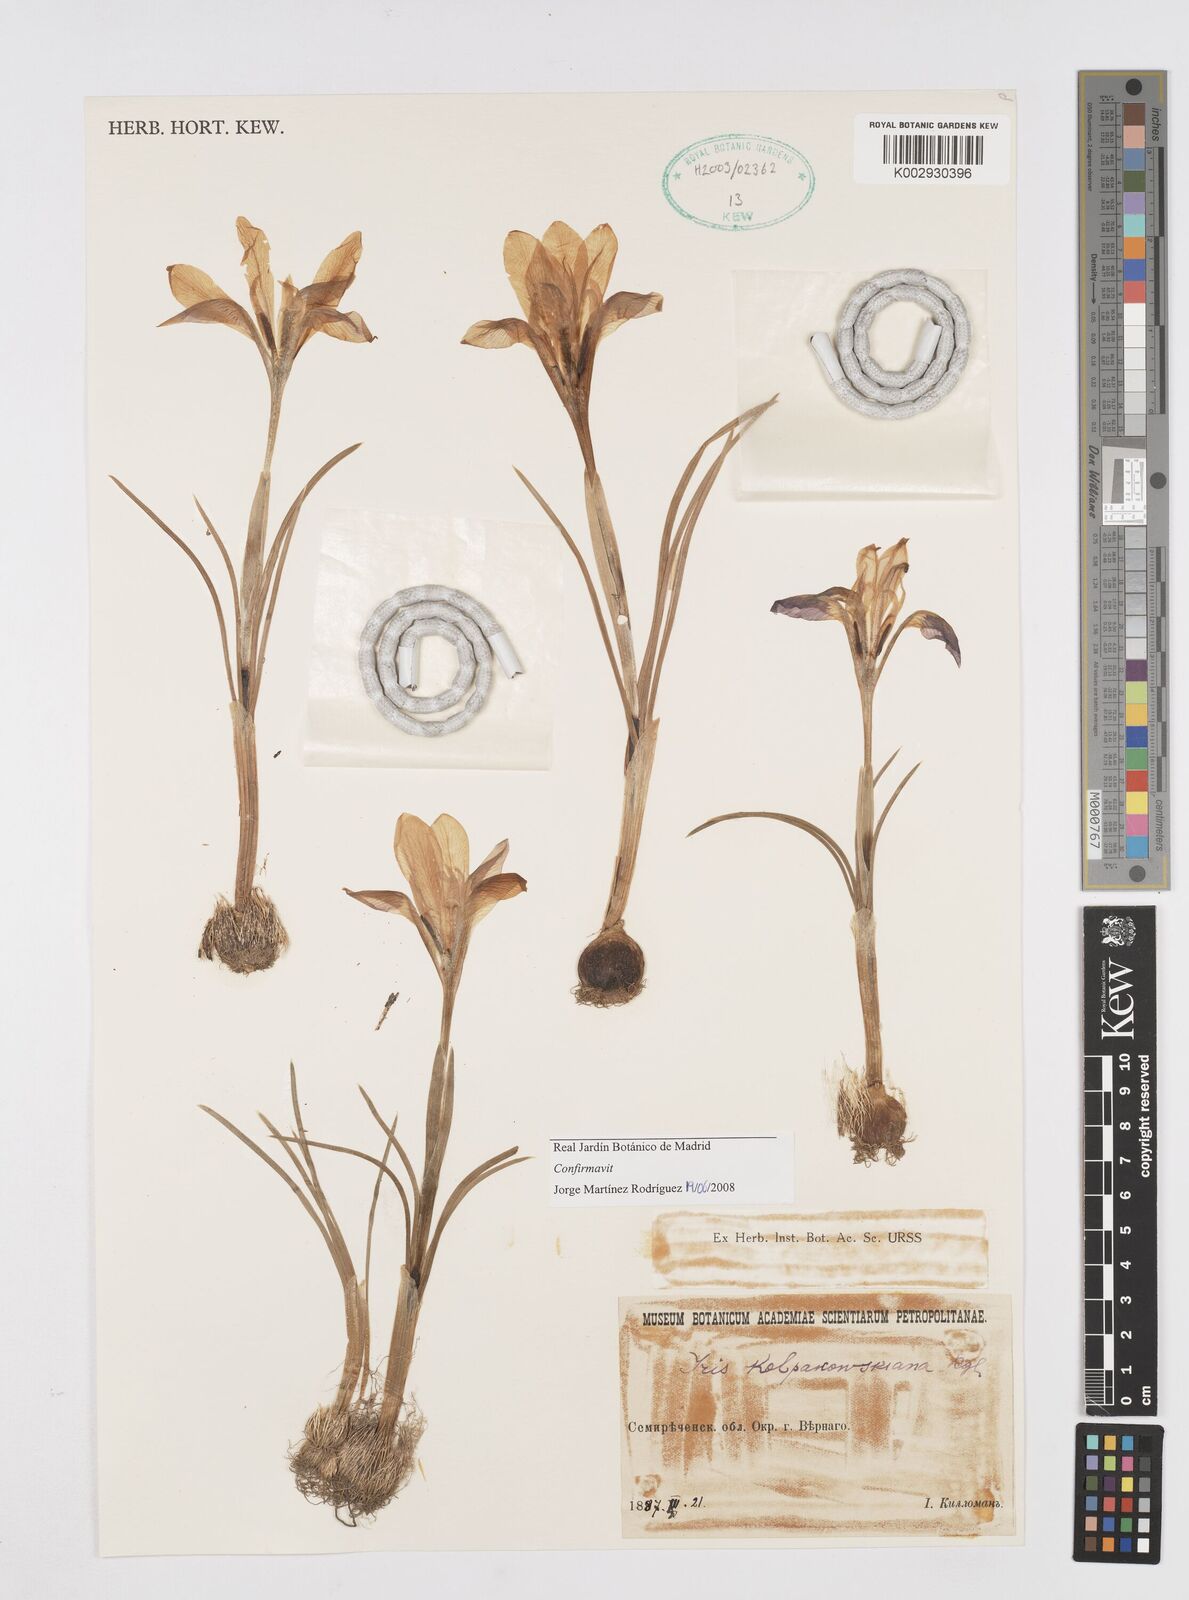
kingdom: Plantae
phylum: Tracheophyta
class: Liliopsida
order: Asparagales
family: Iridaceae
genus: Iris
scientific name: Iris kolpakowskiana
